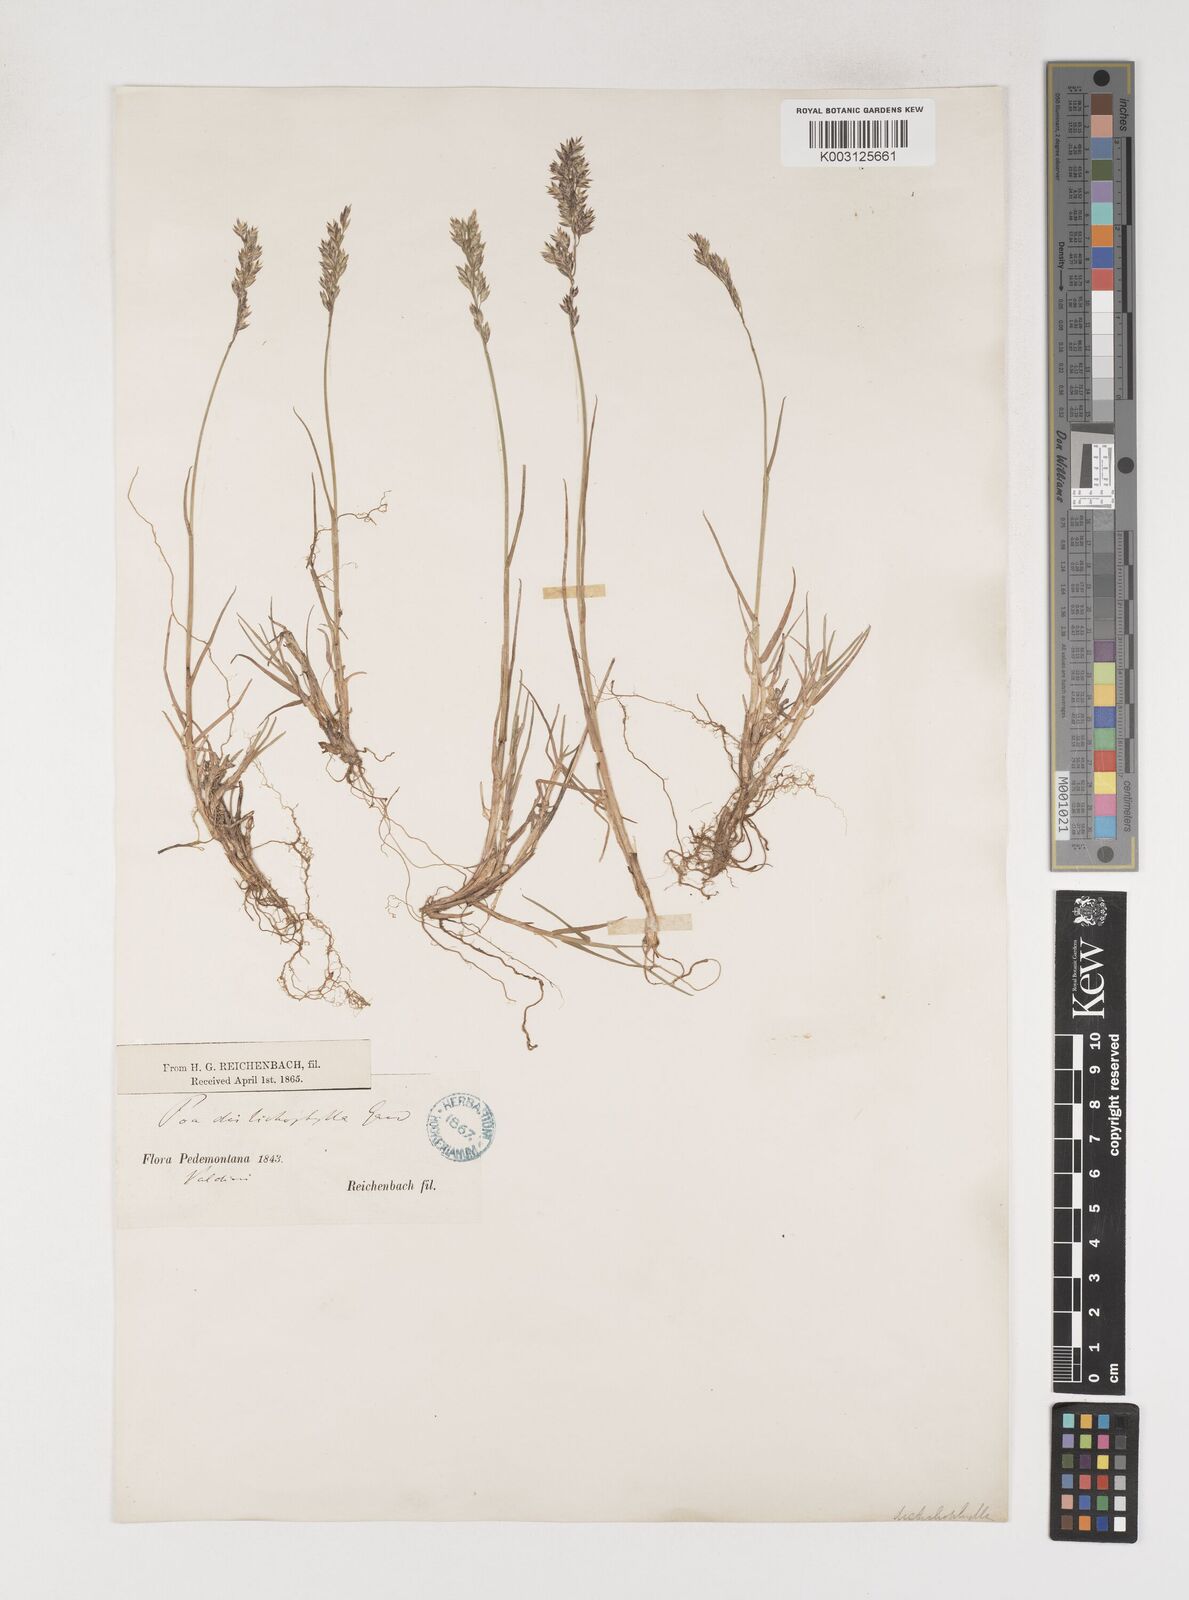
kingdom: Plantae
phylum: Tracheophyta
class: Liliopsida
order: Poales
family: Poaceae
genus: Poa
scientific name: Poa
